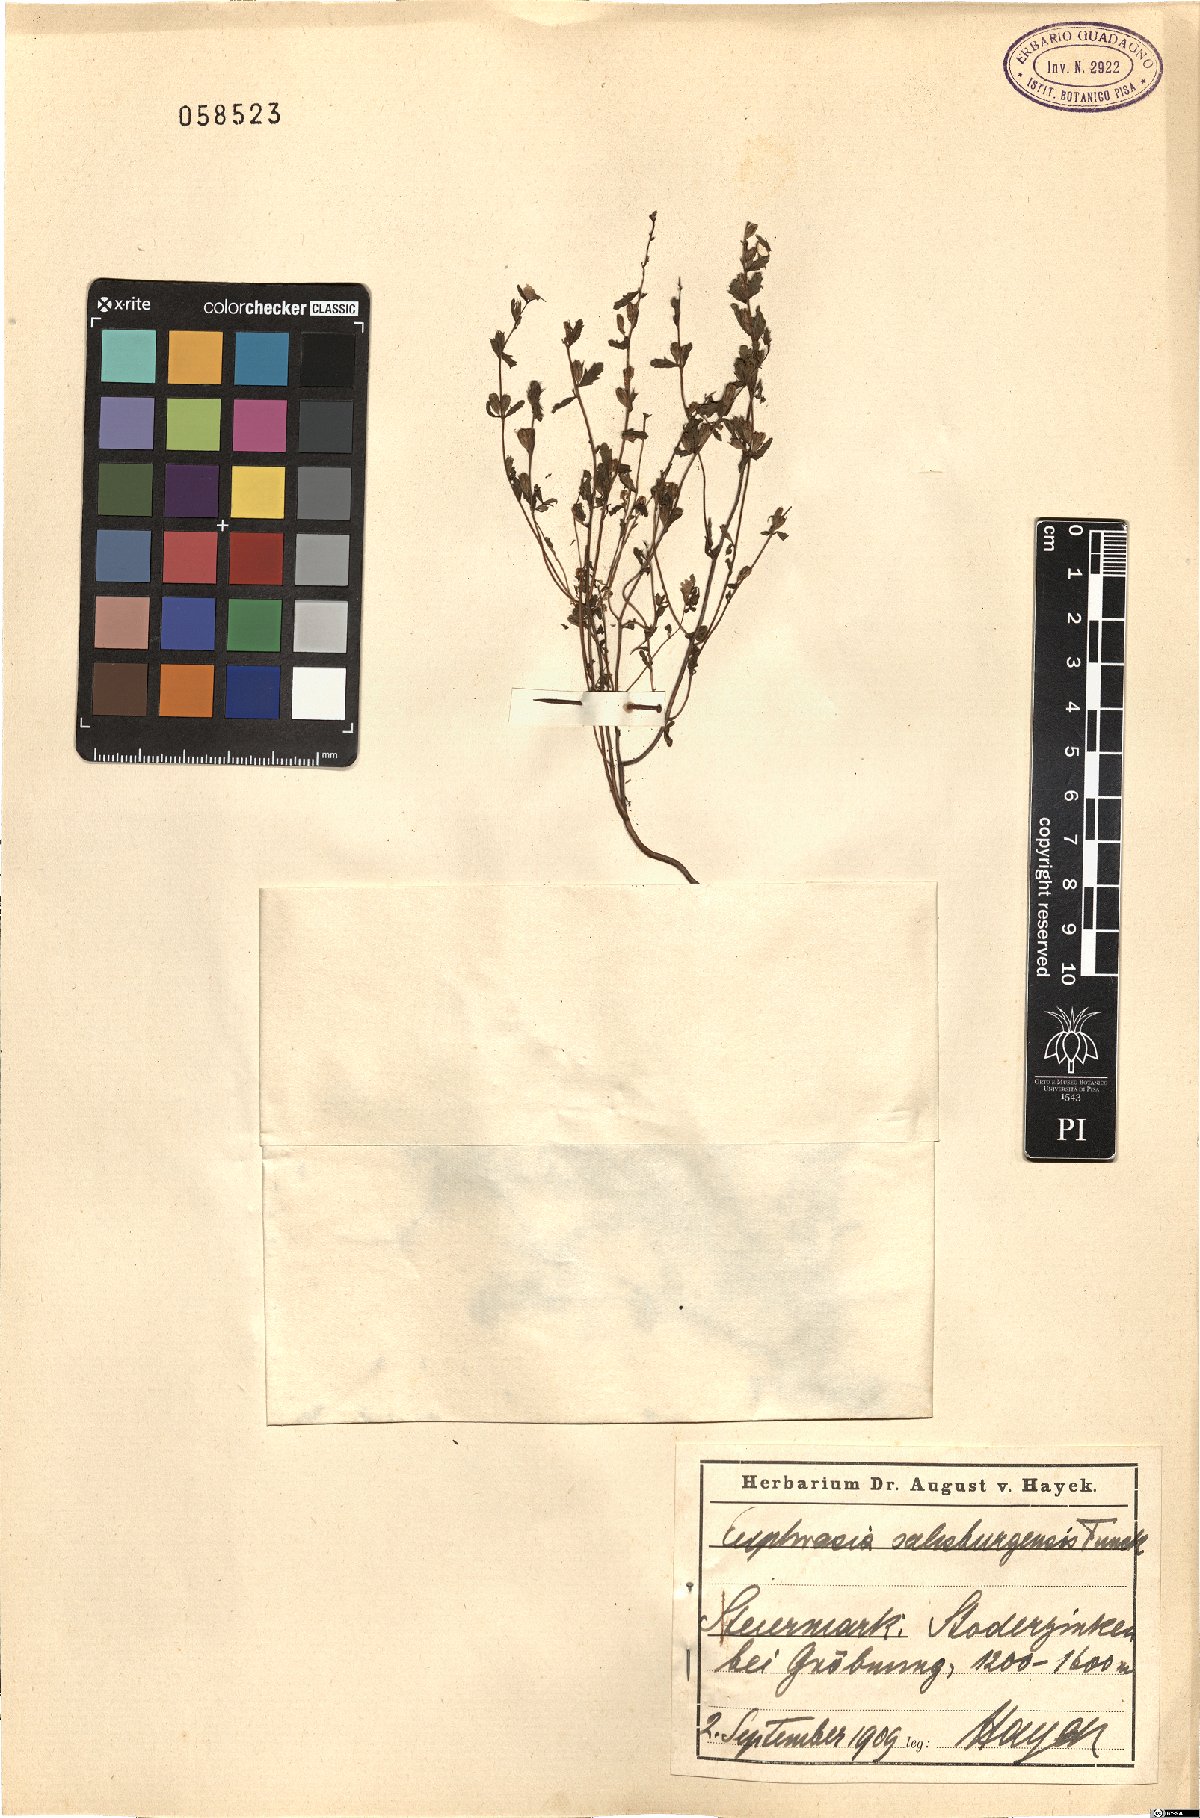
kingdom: Plantae
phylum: Tracheophyta
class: Magnoliopsida
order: Lamiales
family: Orobanchaceae
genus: Euphrasia
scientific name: Euphrasia salisburgensis
